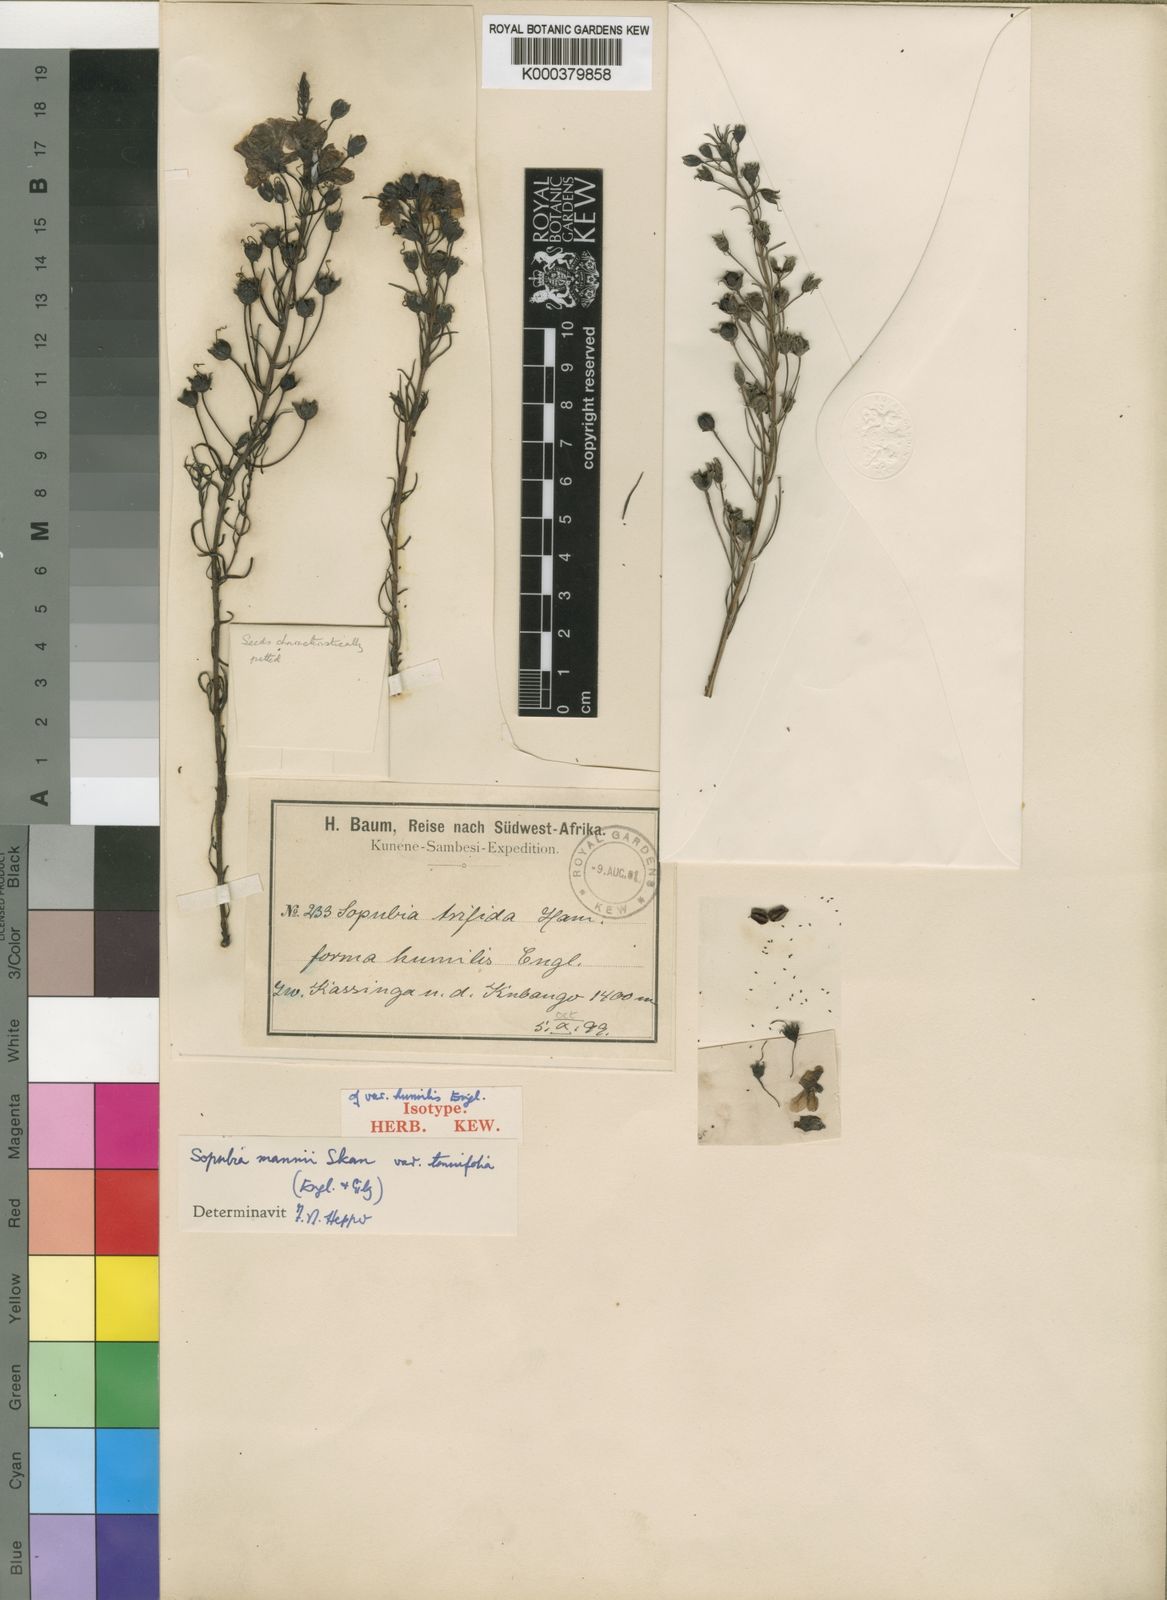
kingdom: Plantae
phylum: Tracheophyta
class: Magnoliopsida
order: Lamiales
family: Orobanchaceae
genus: Sopubia
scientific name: Sopubia mannii
